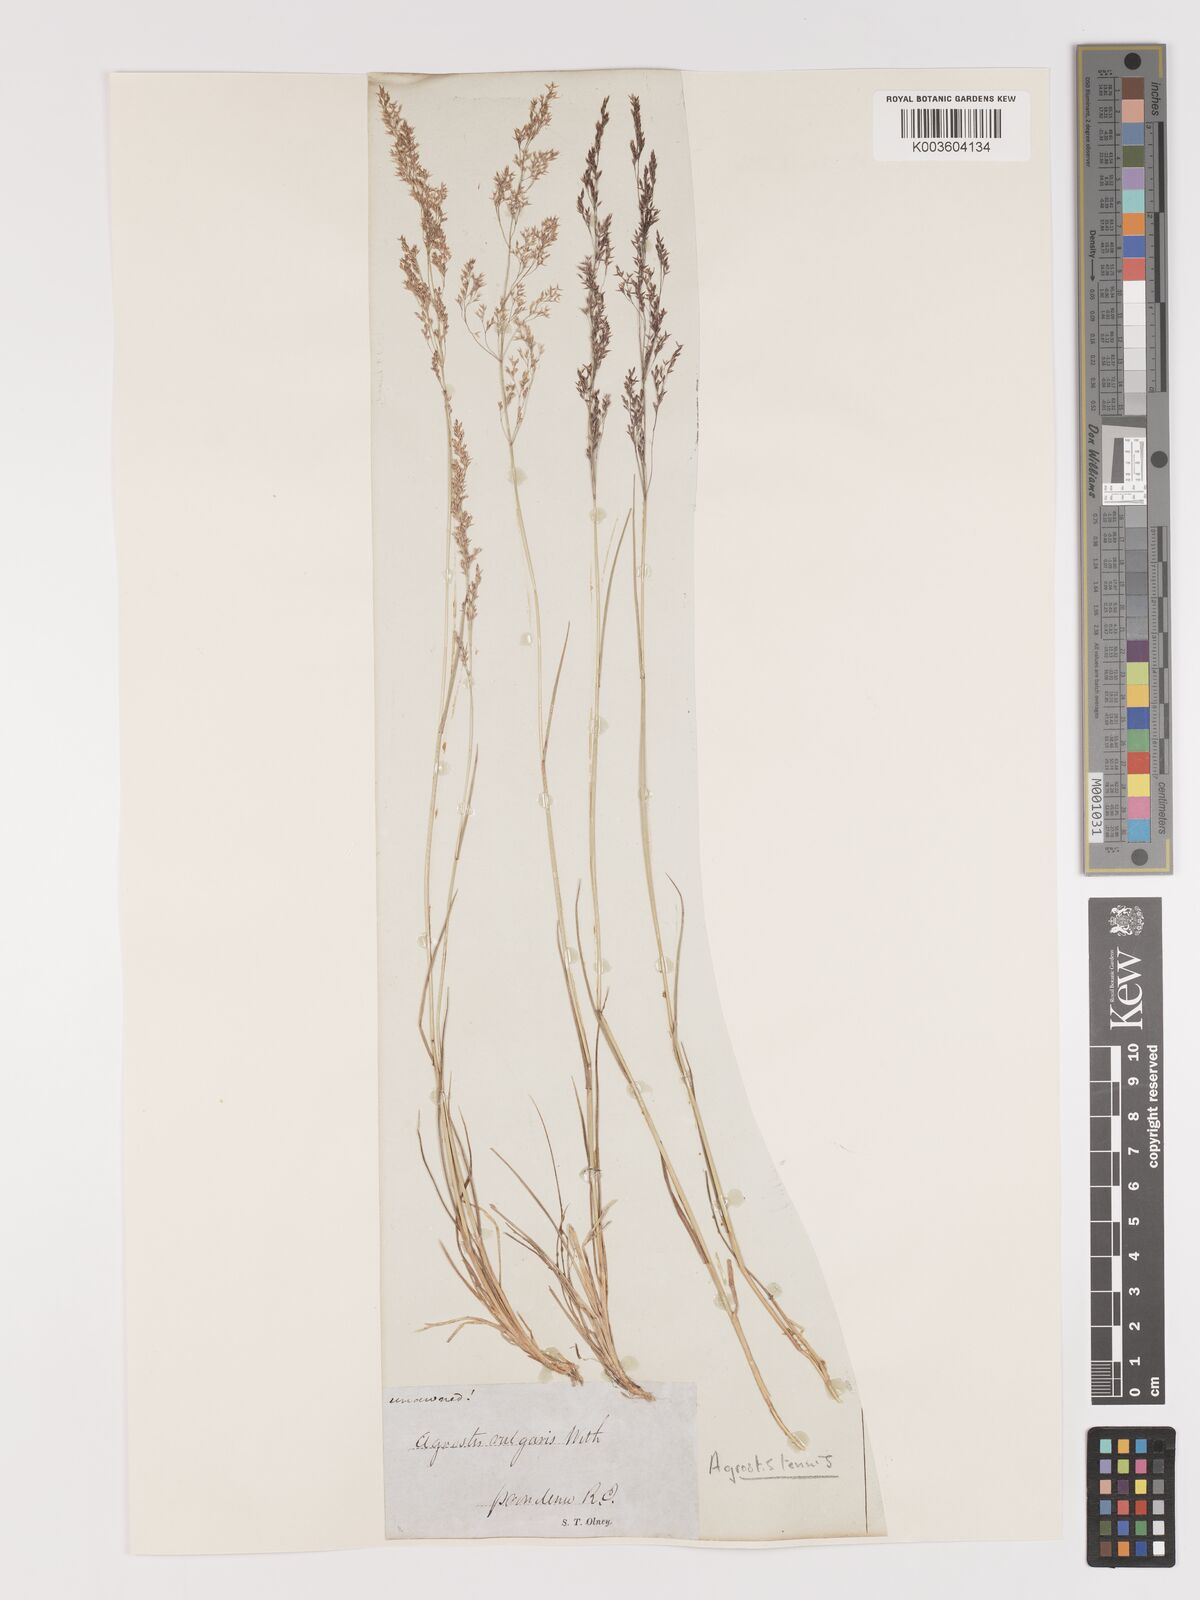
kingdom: Plantae
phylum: Tracheophyta
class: Liliopsida
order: Poales
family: Poaceae
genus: Agrostis
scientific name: Agrostis capillaris
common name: Colonial bentgrass
